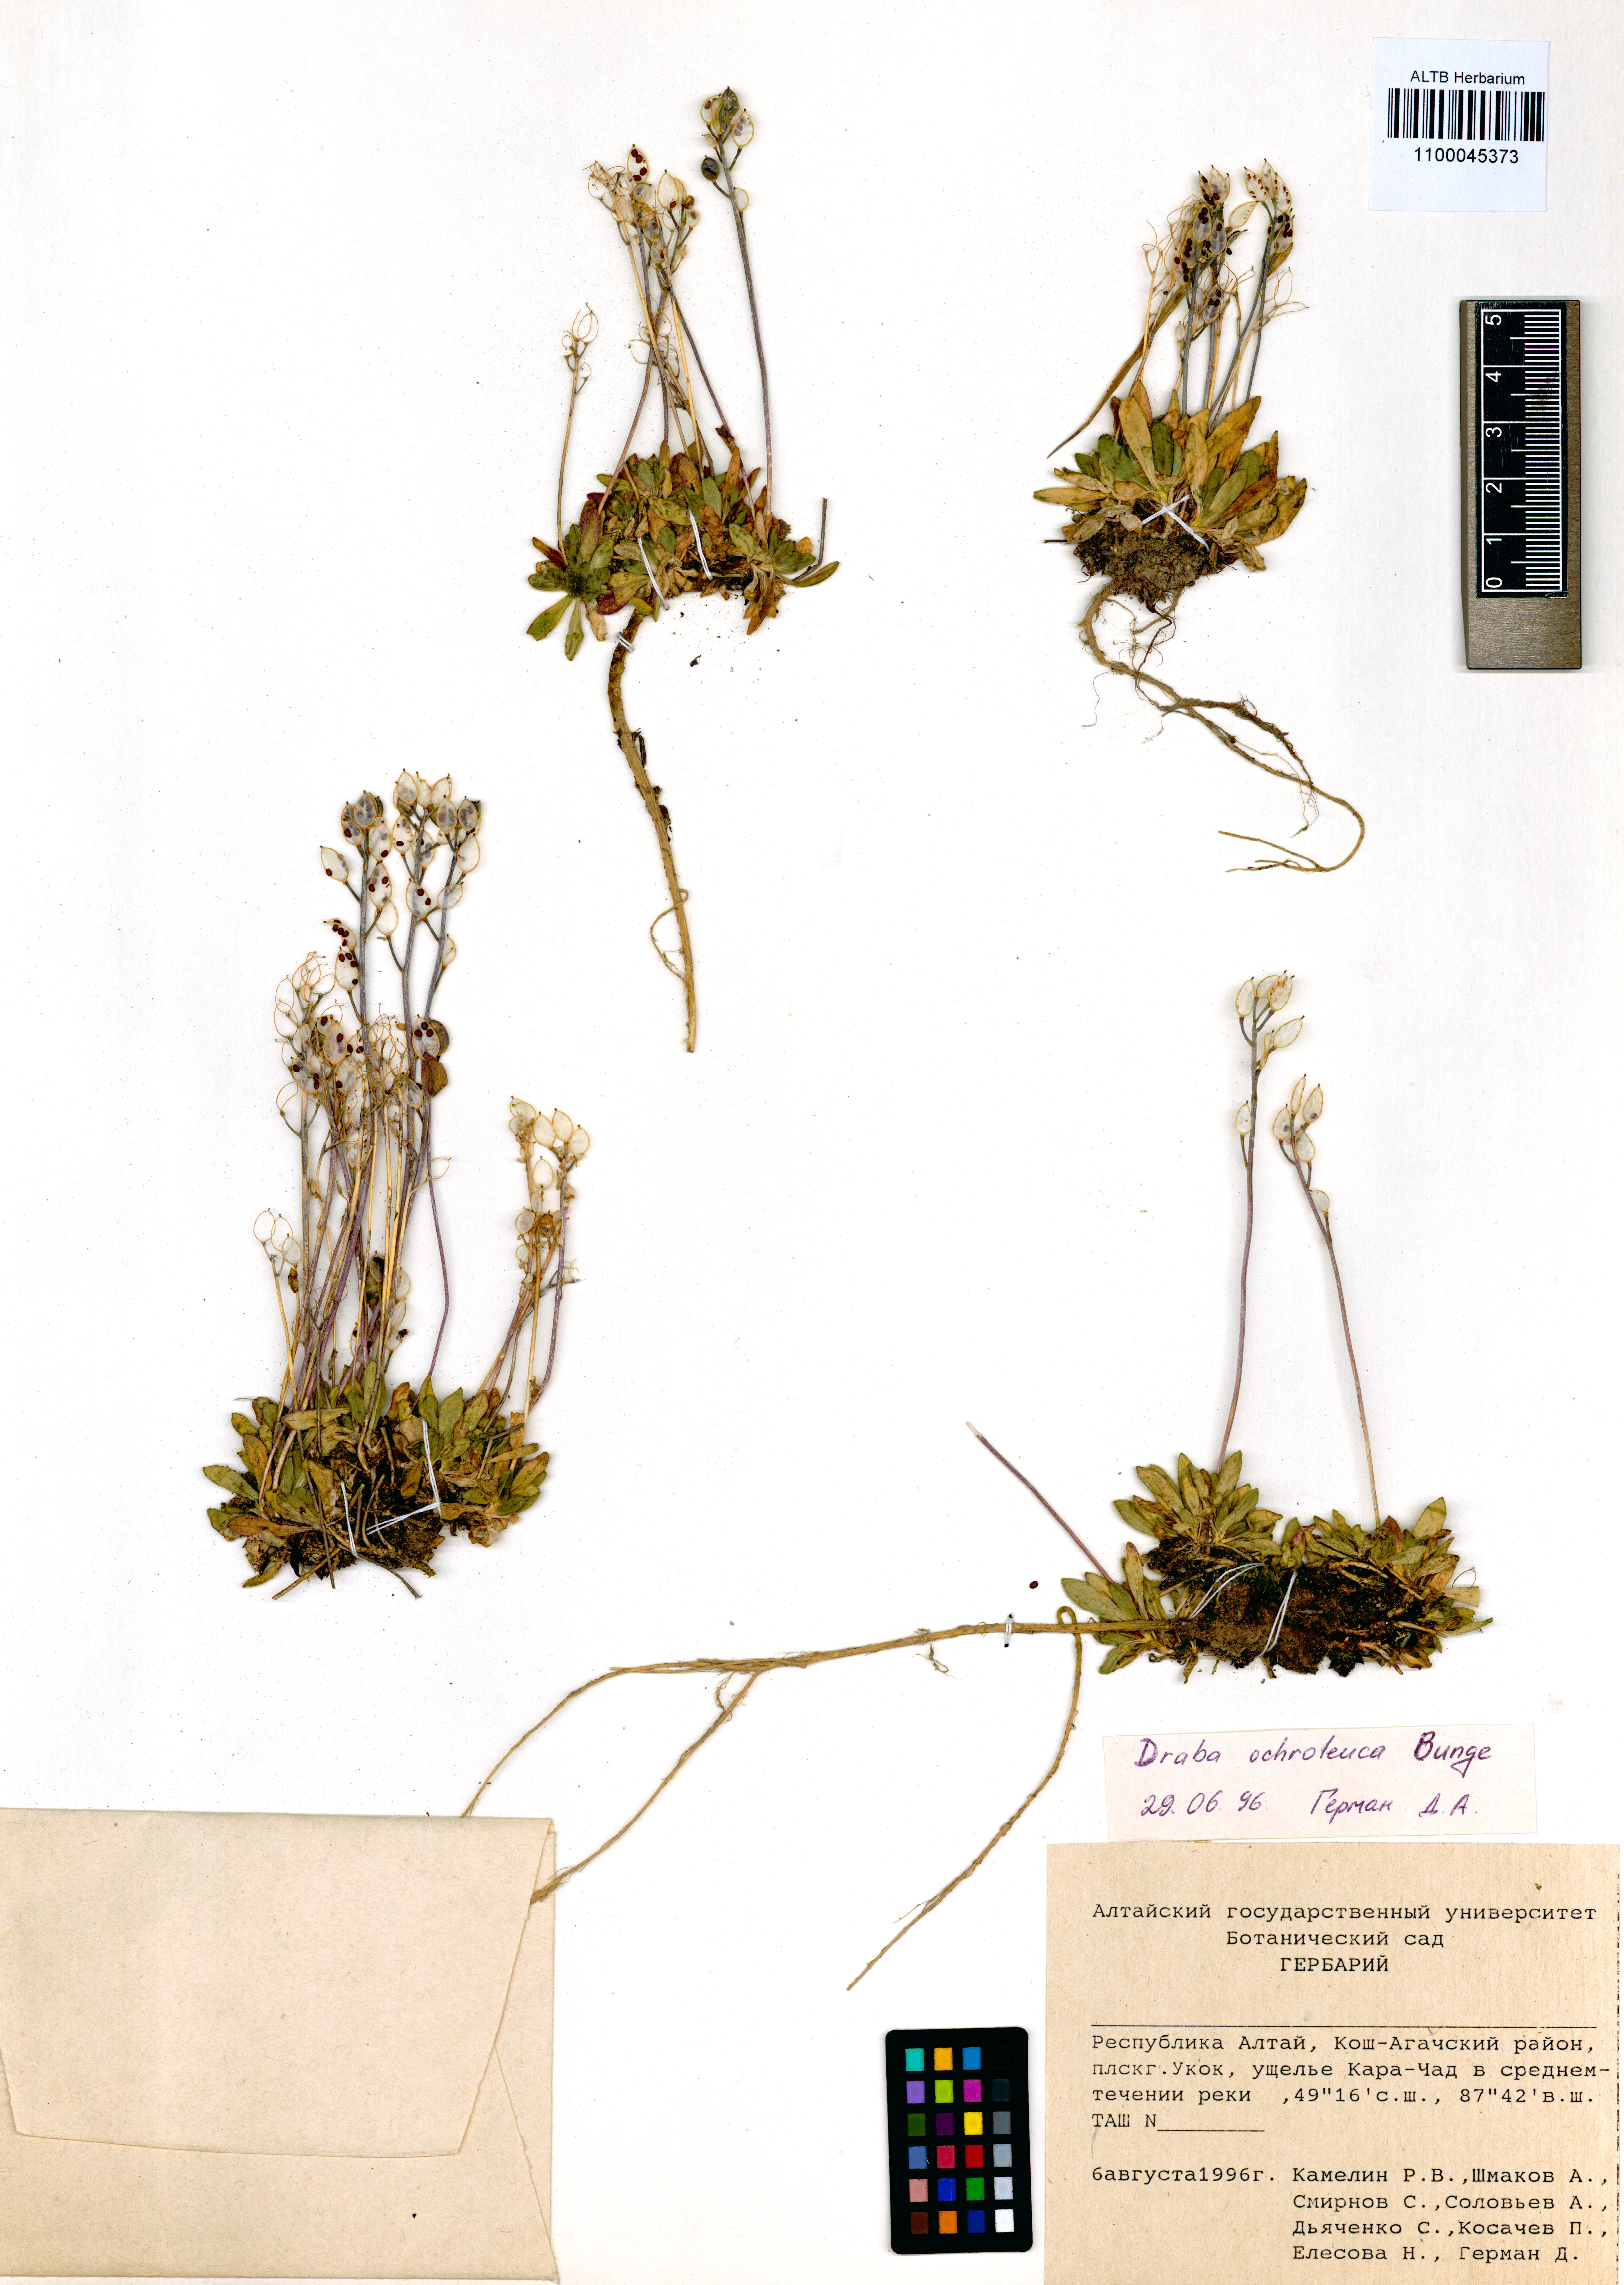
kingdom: Plantae
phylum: Tracheophyta
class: Magnoliopsida
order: Brassicales
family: Brassicaceae
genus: Draba
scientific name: Draba ochroleuca
